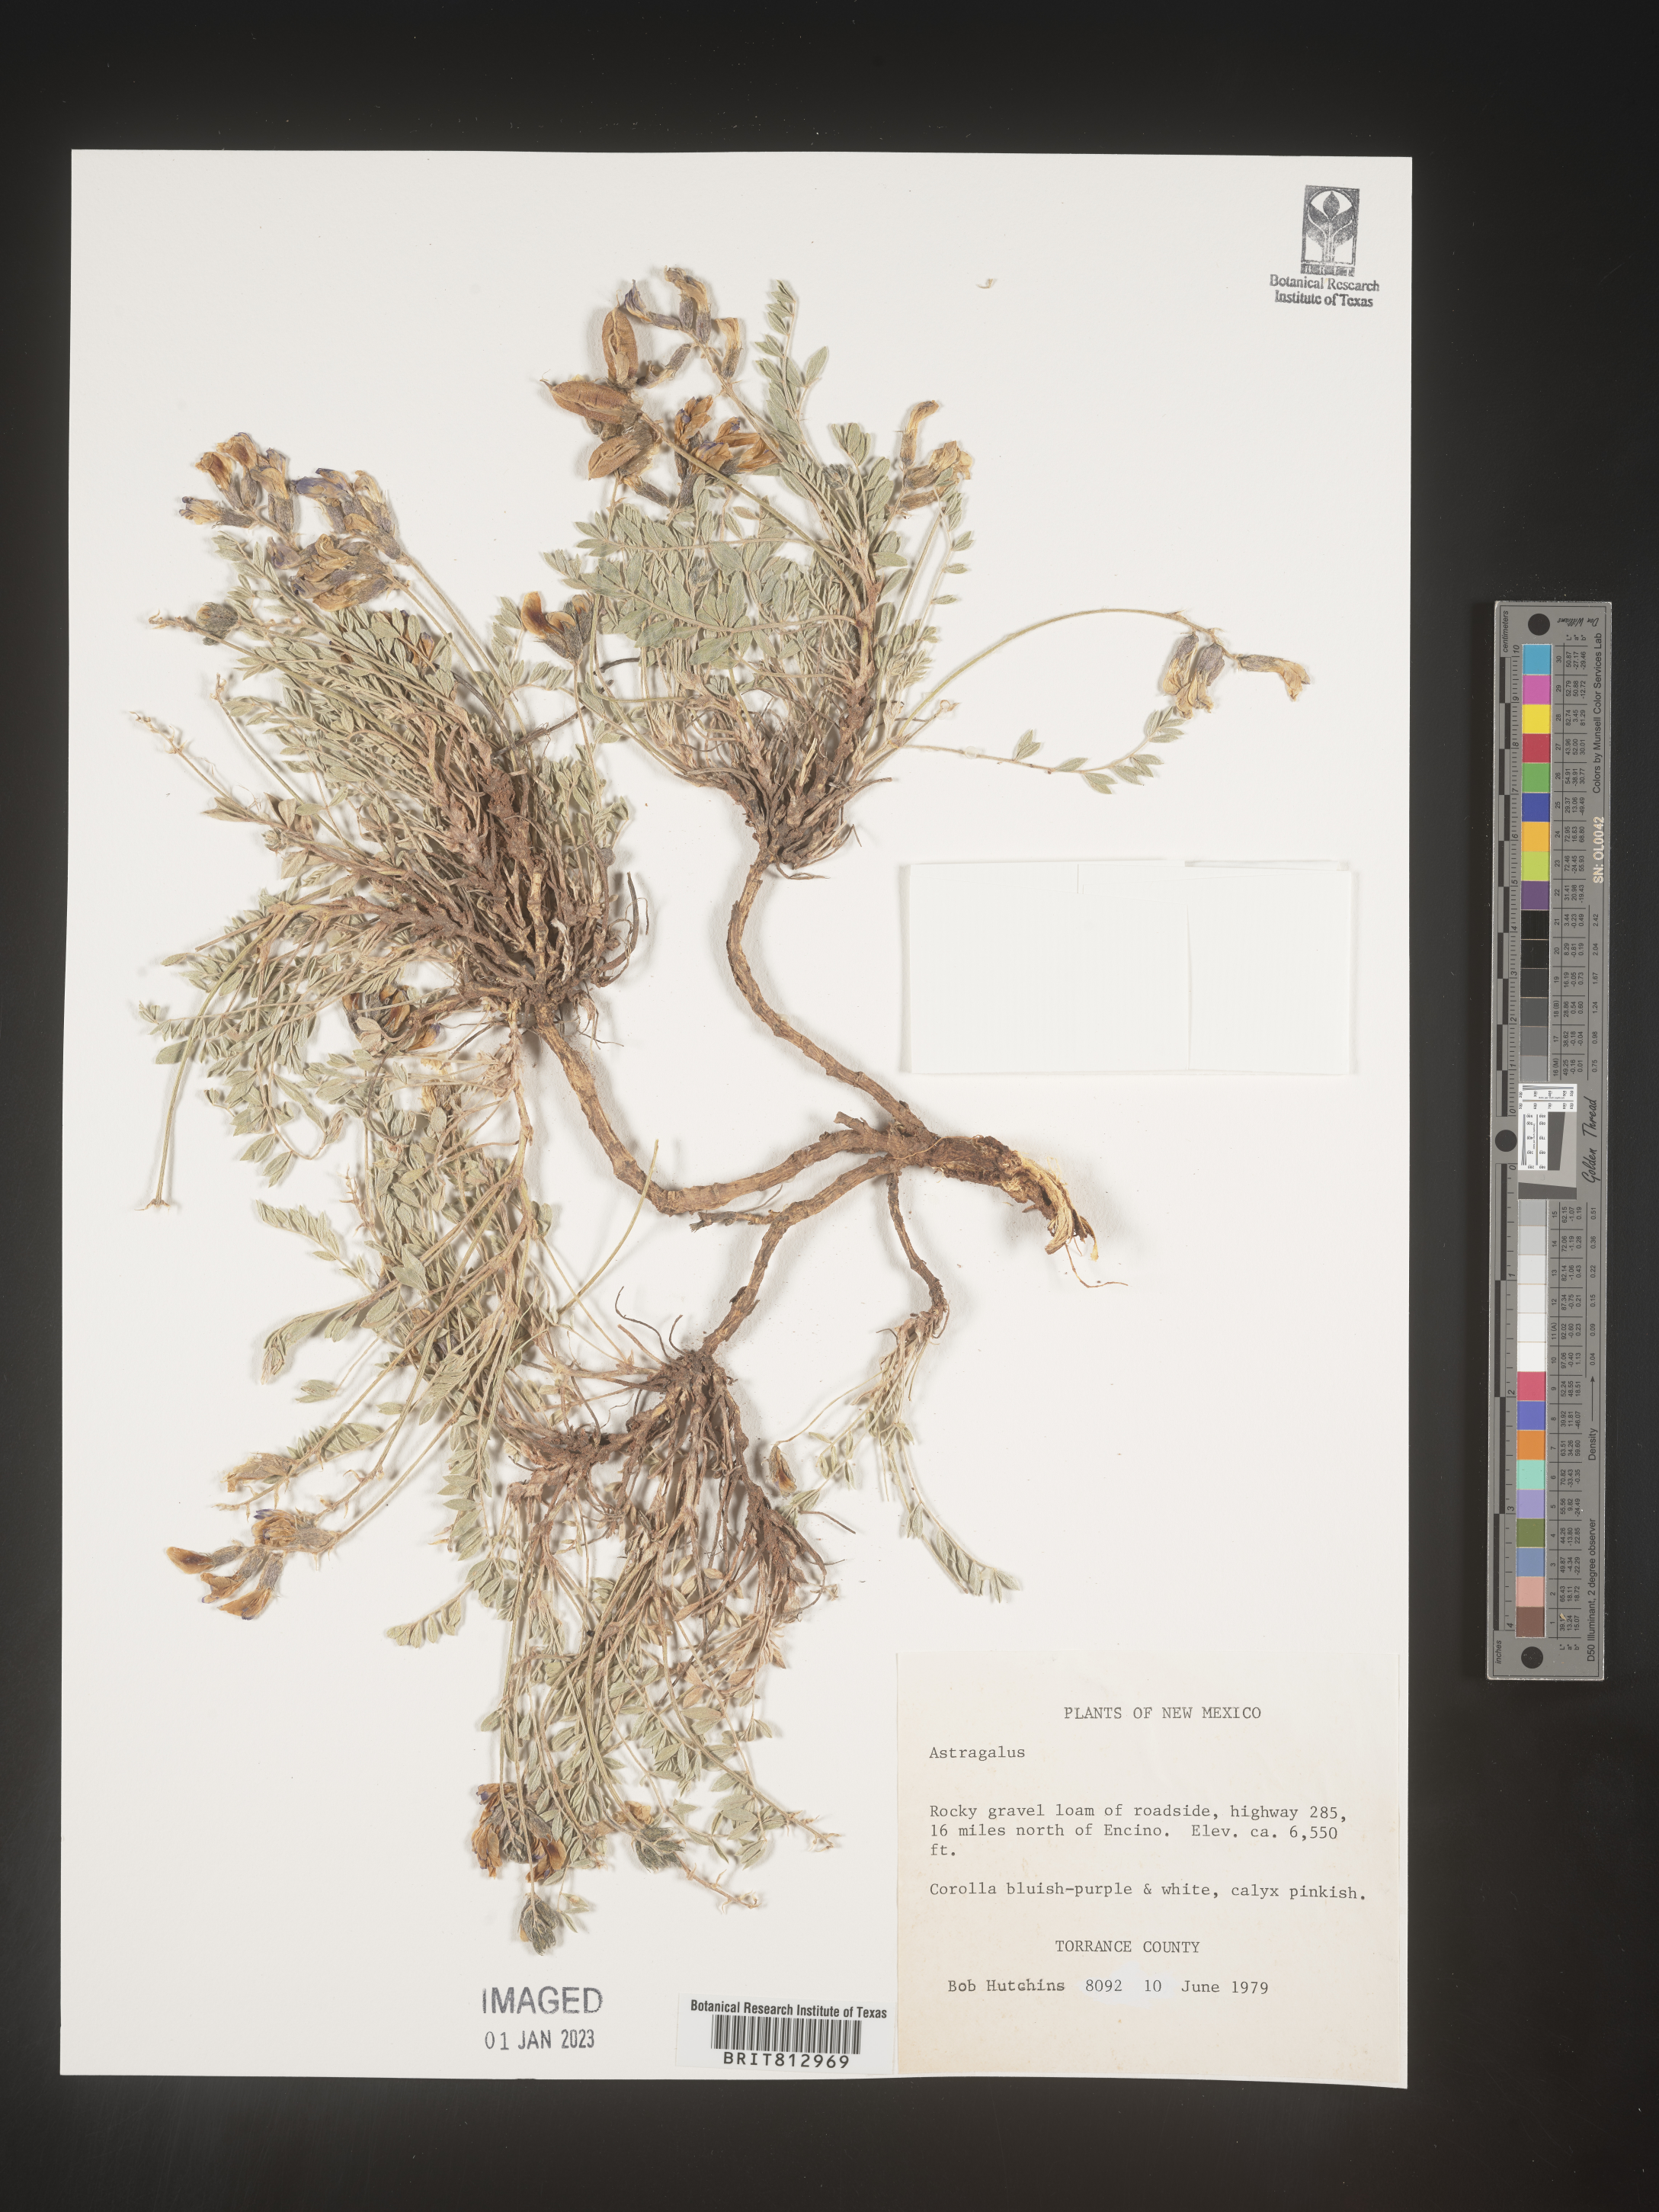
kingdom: Plantae
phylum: Tracheophyta
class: Magnoliopsida
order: Fabales
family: Fabaceae
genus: Astragalus
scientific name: Astragalus
